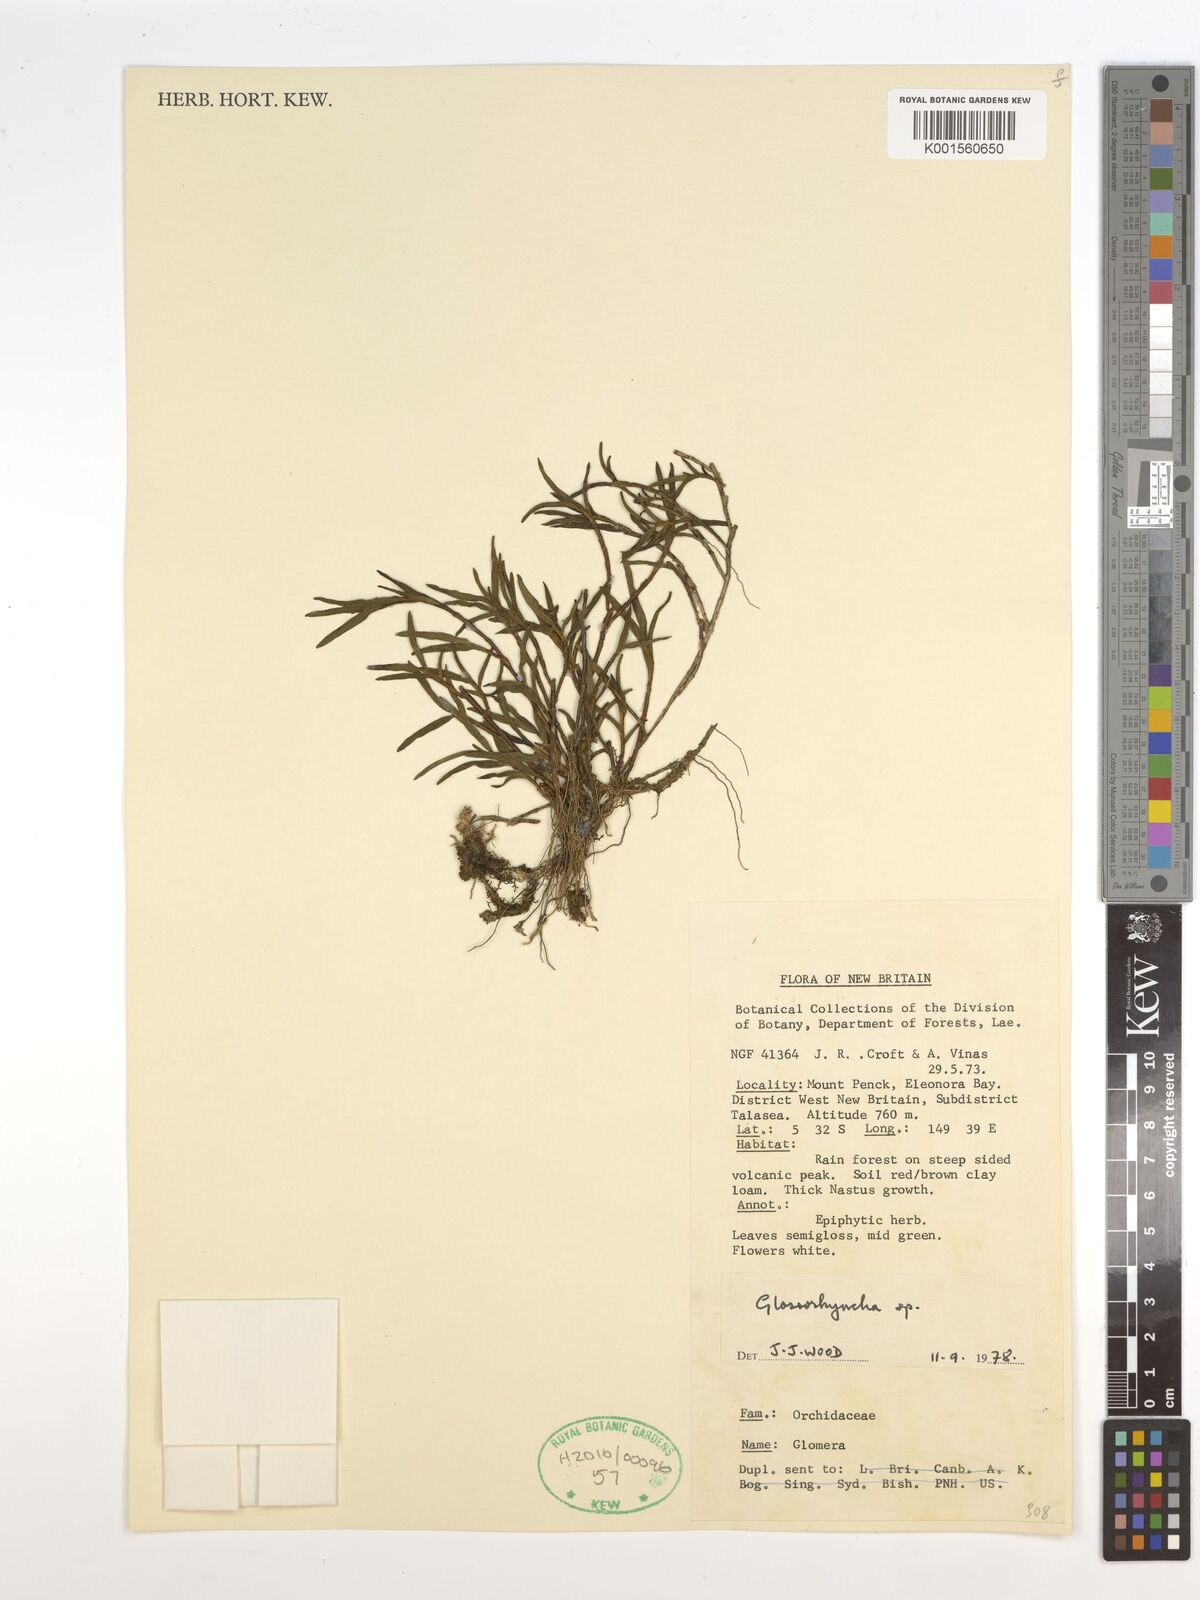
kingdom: Plantae
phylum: Tracheophyta
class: Liliopsida
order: Asparagales
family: Orchidaceae
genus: Glomera
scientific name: Glomera
